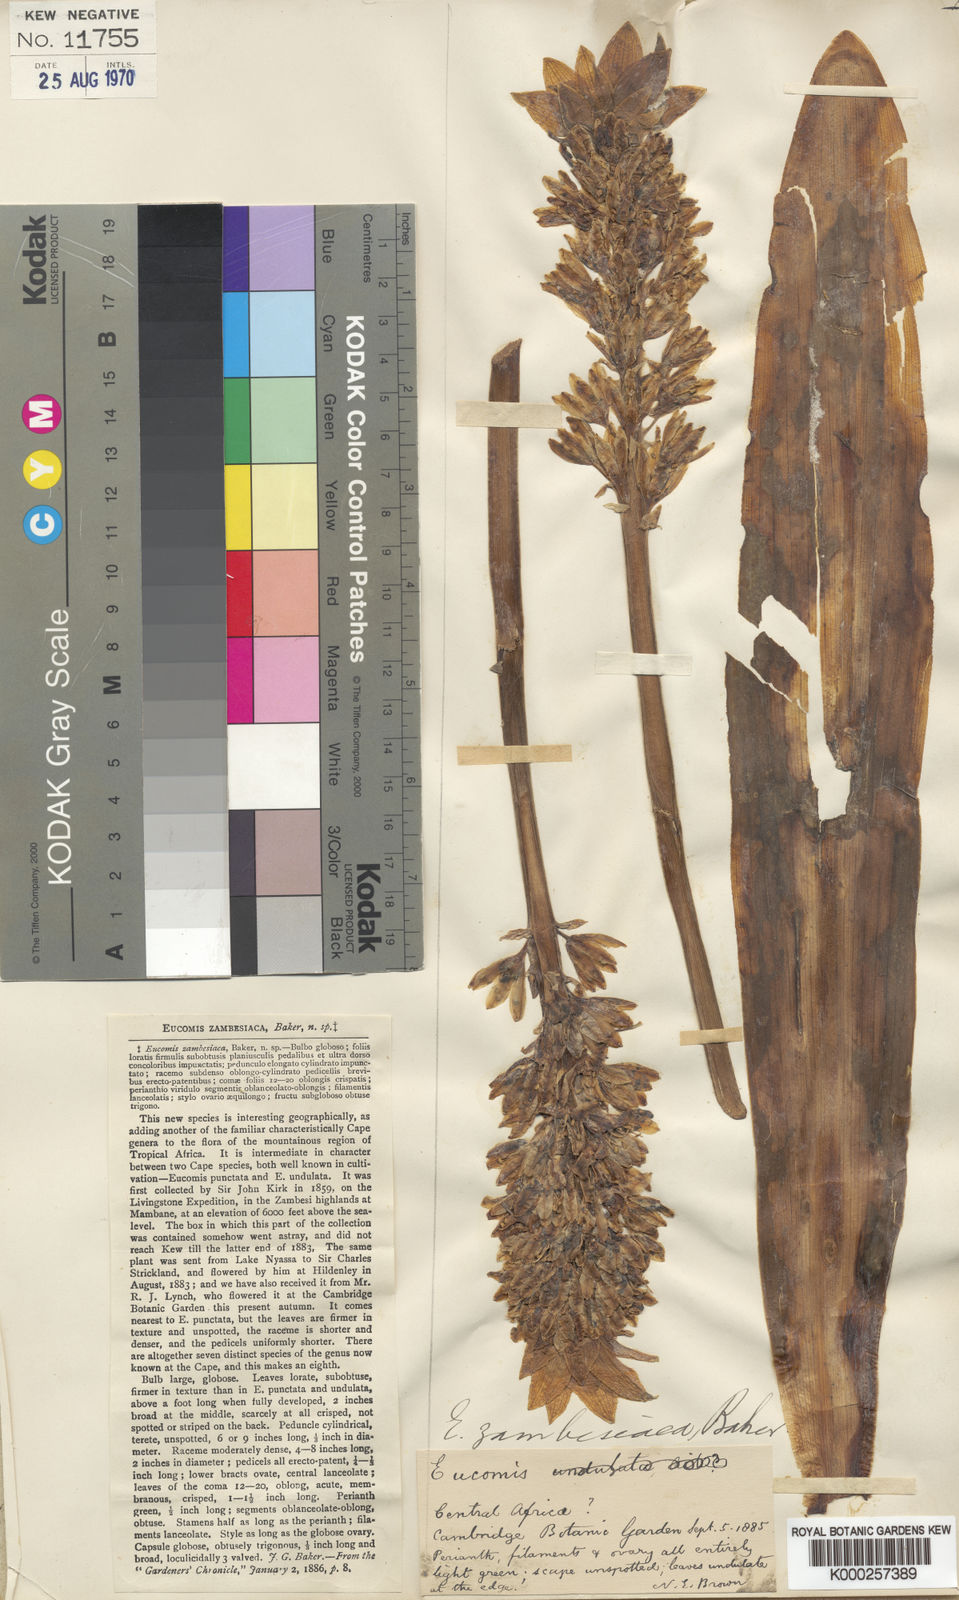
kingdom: Plantae
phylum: Tracheophyta
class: Liliopsida
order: Asparagales
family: Asparagaceae
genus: Eucomis
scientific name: Eucomis zambesiaca
